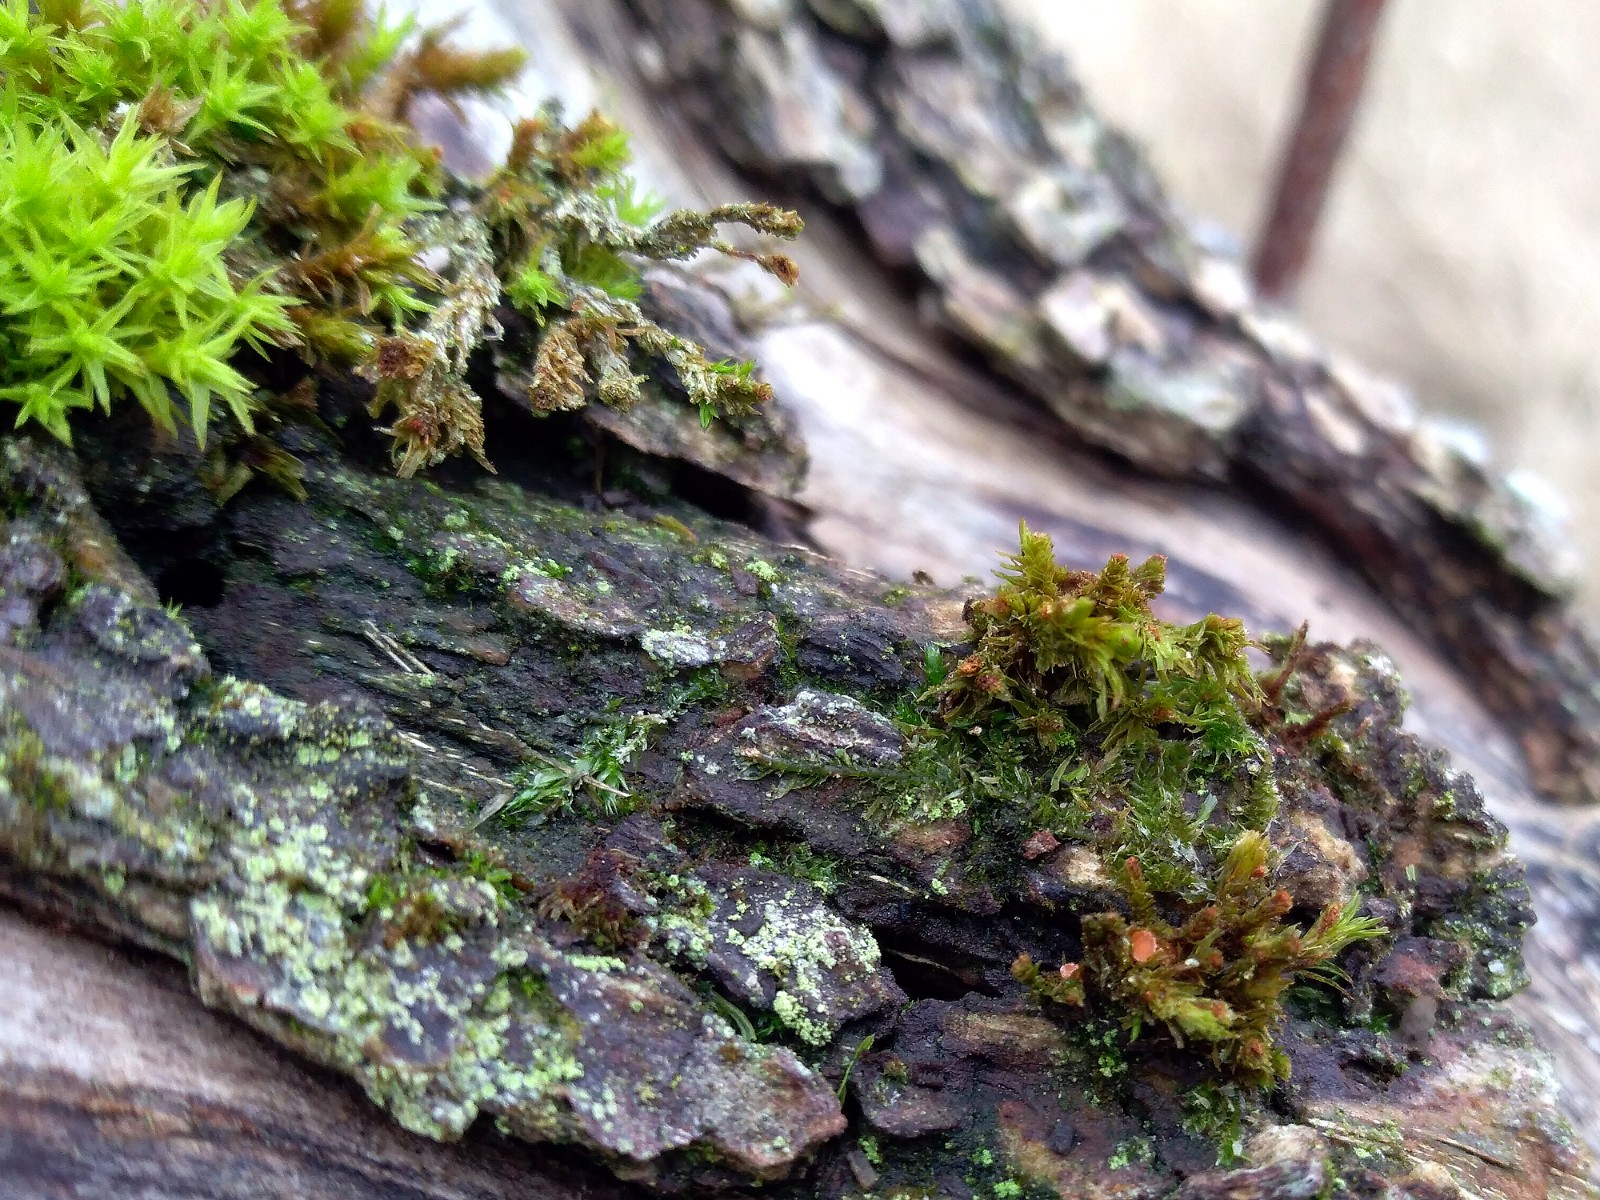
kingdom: Fungi
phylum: Ascomycota
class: Pezizomycetes
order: Pezizales
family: Pyronemataceae
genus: Octospora
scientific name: Octospora affinis
